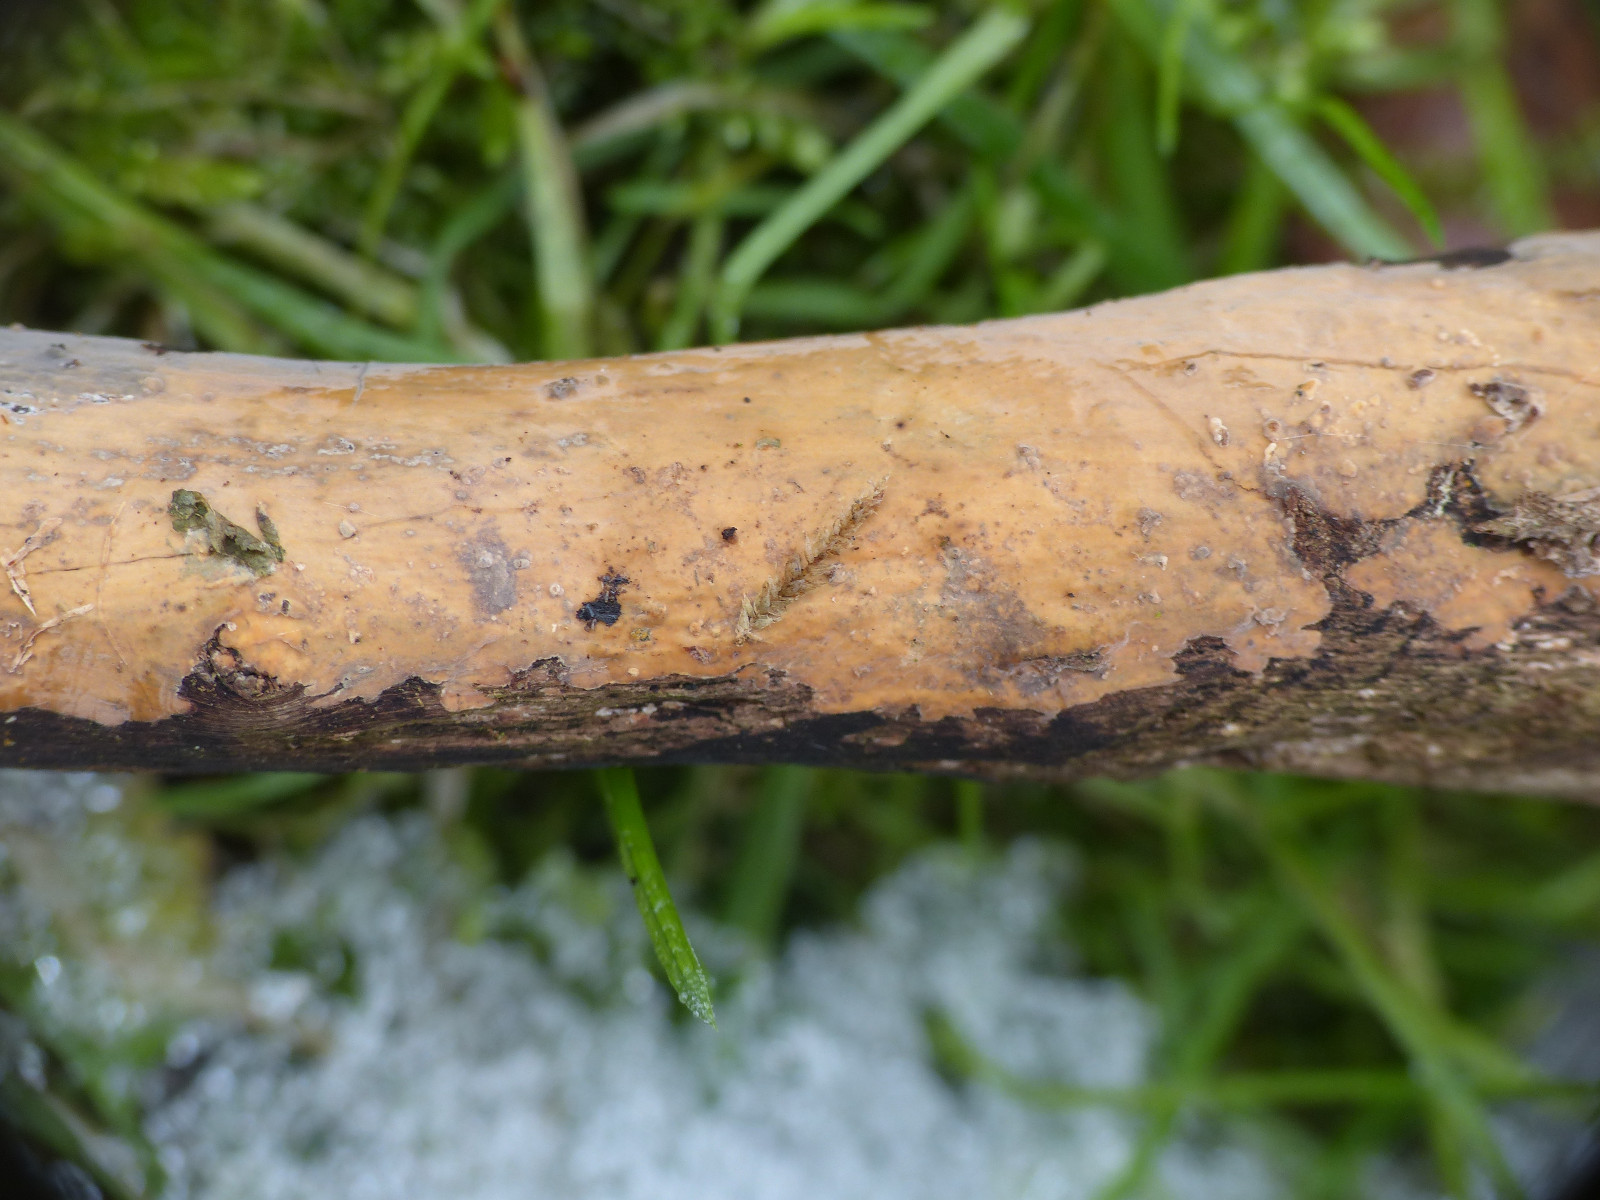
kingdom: Fungi
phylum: Basidiomycota
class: Agaricomycetes
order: Russulales
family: Peniophoraceae
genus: Peniophora
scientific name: Peniophora incarnata
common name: laksefarvet voksskind
